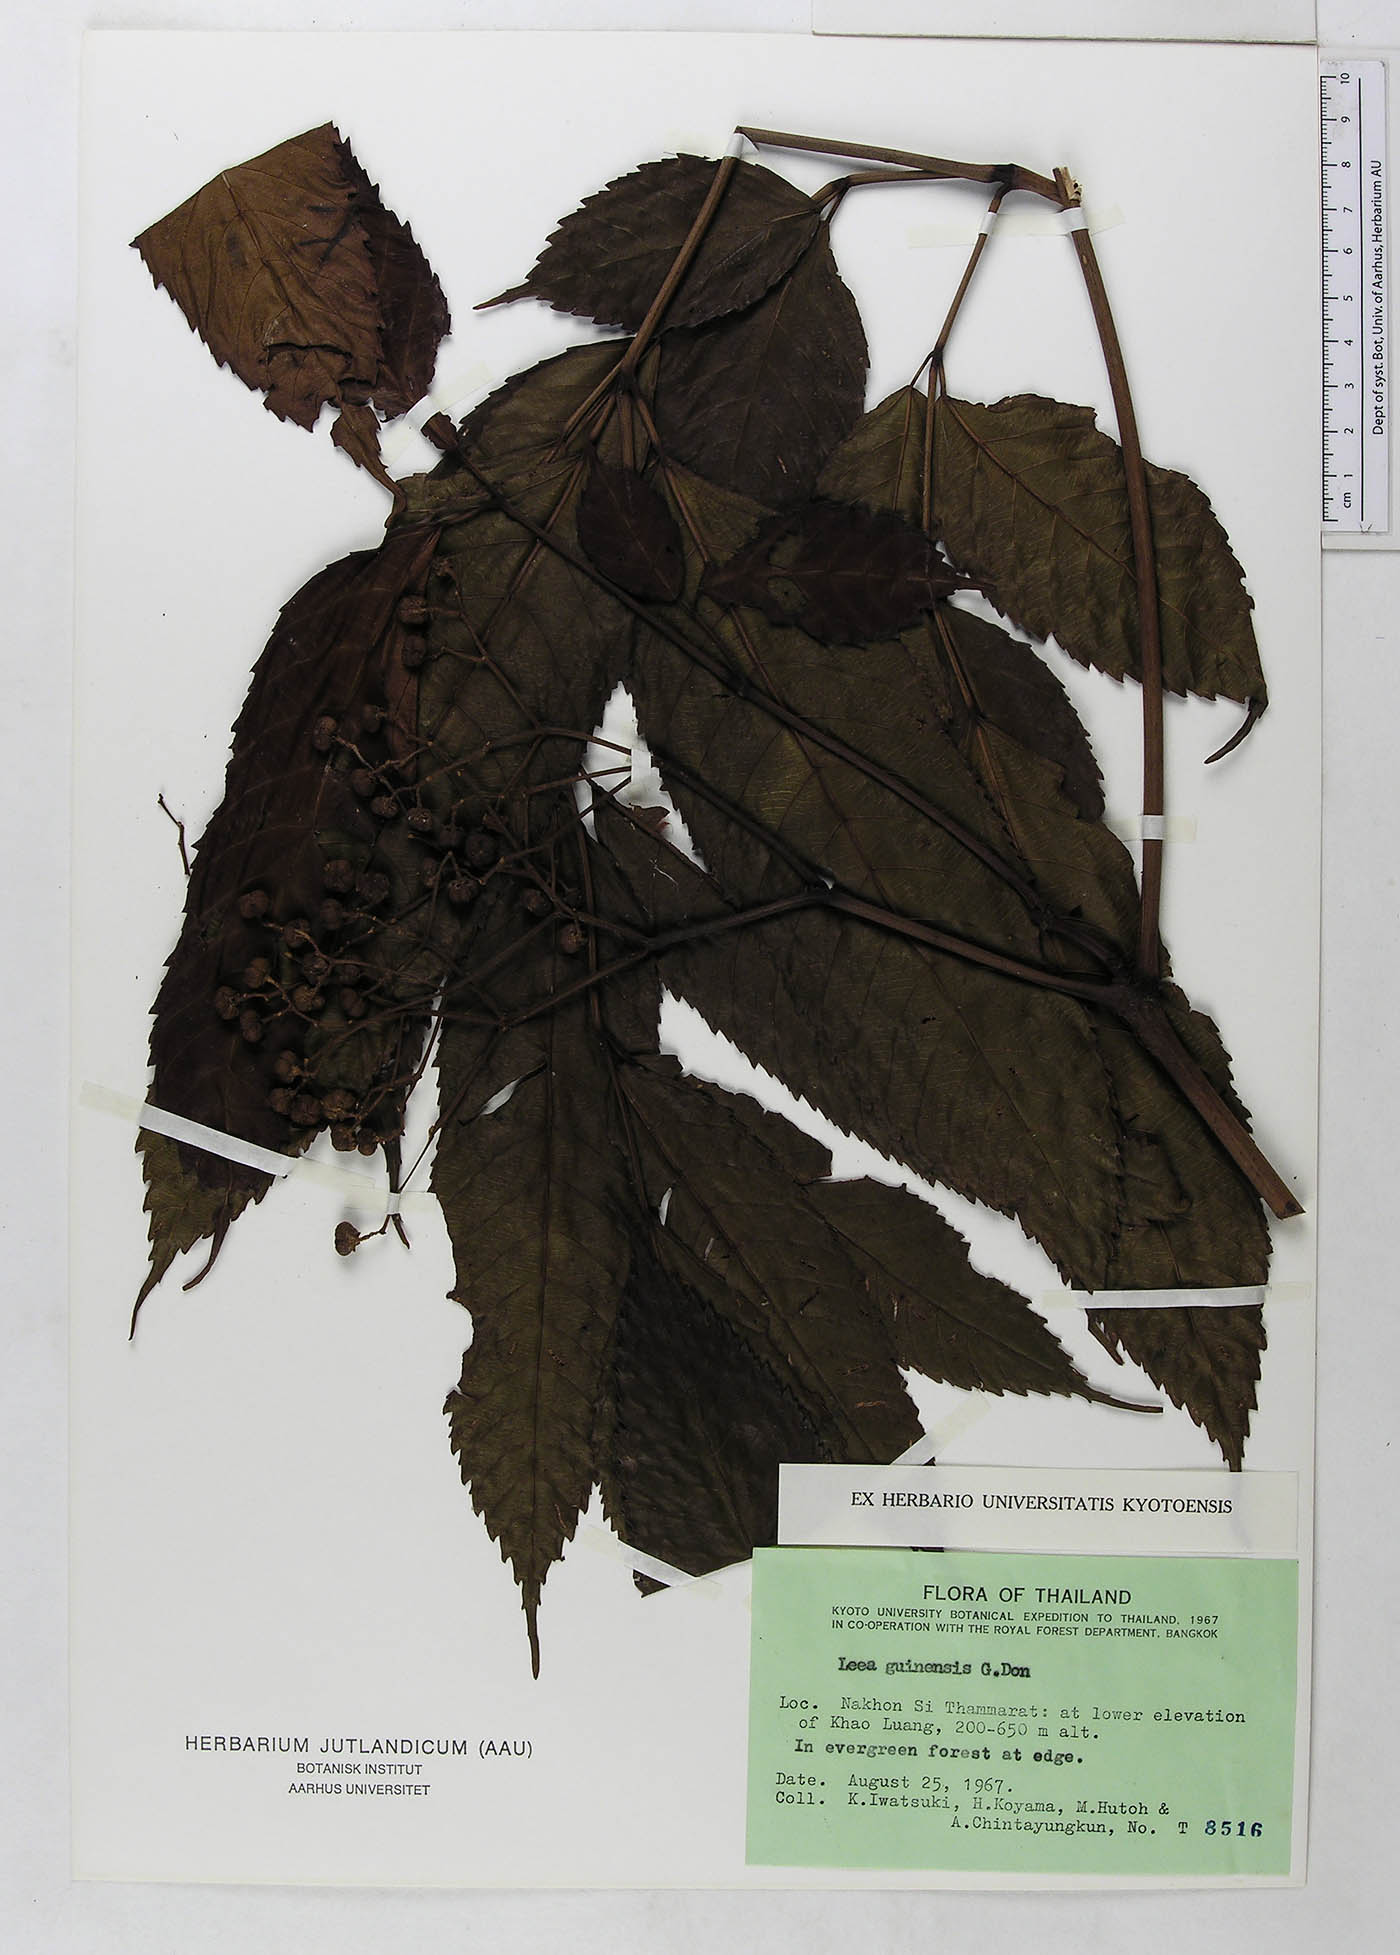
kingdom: Plantae
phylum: Tracheophyta
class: Magnoliopsida
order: Vitales
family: Vitaceae
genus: Leea
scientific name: Leea indica
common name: Bandicoot-berry
